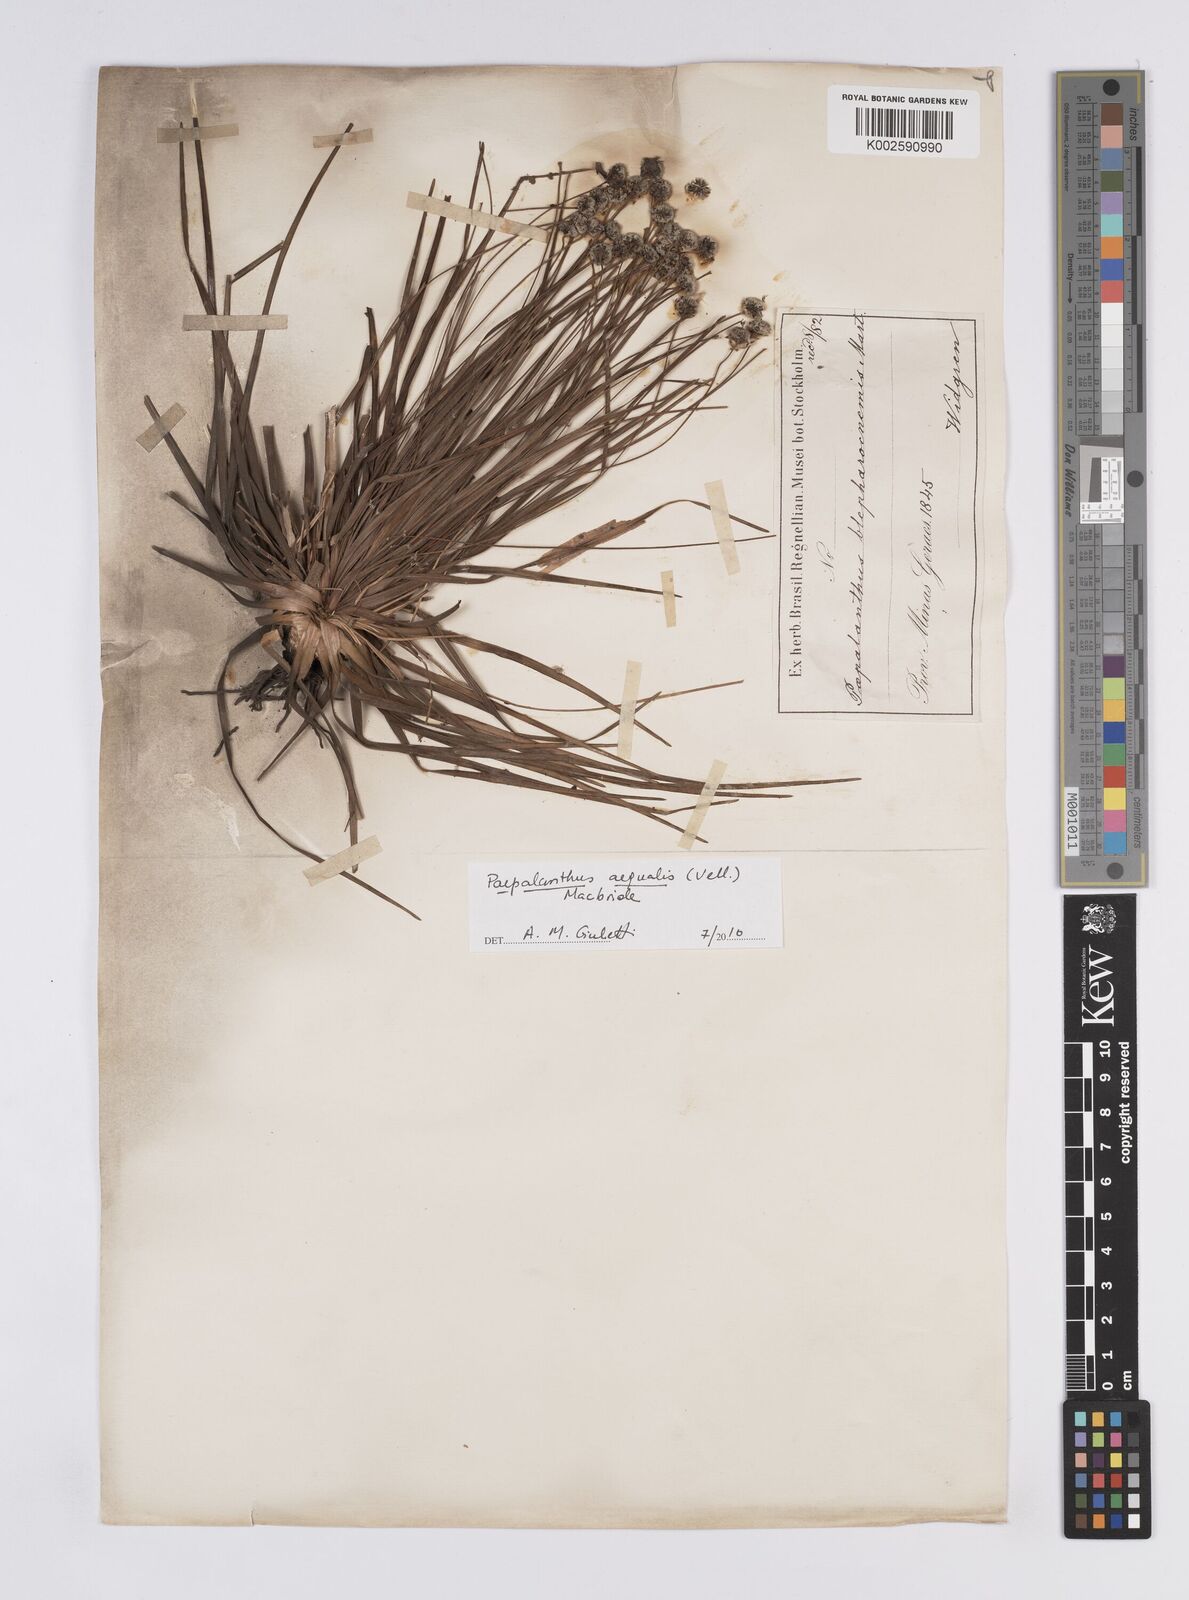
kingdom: Plantae
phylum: Tracheophyta
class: Liliopsida
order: Poales
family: Eriocaulaceae
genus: Paepalanthus
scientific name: Paepalanthus aequalis
